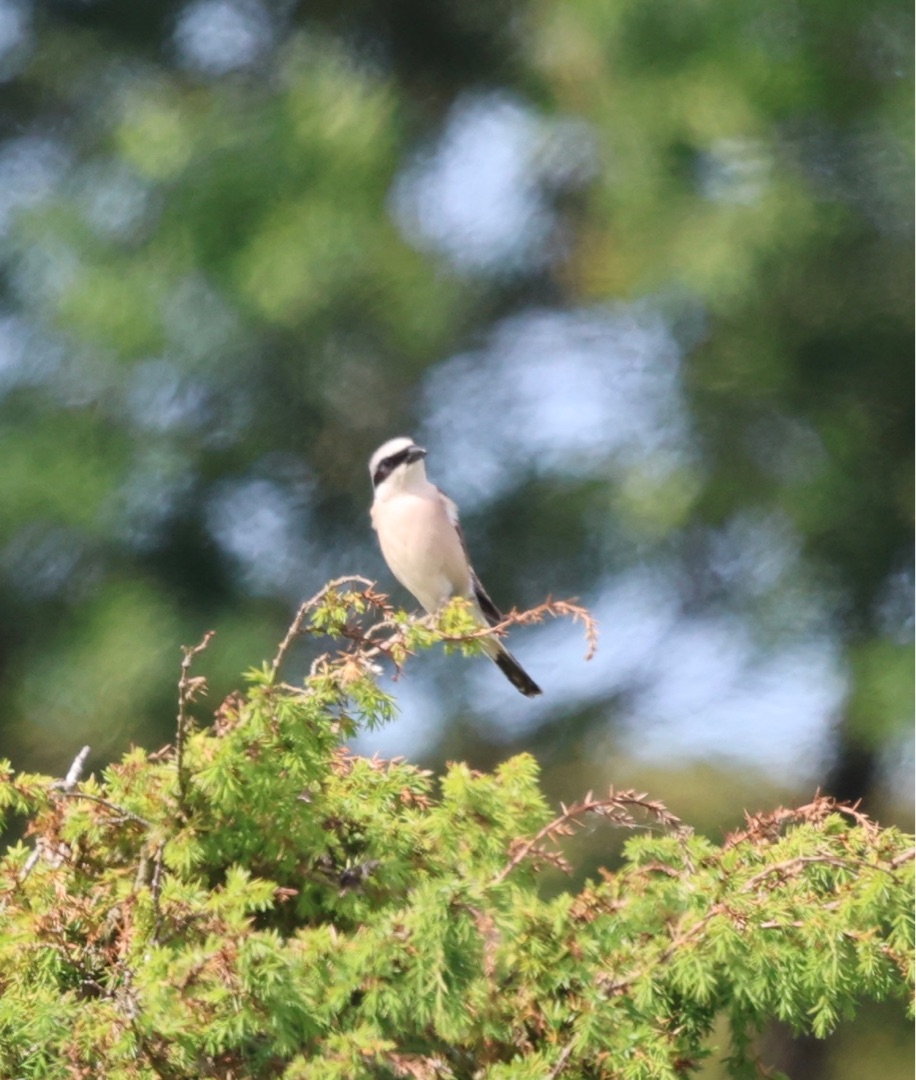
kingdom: Animalia
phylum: Chordata
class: Aves
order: Passeriformes
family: Laniidae
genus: Lanius
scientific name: Lanius collurio
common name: Rødrygget tornskade
